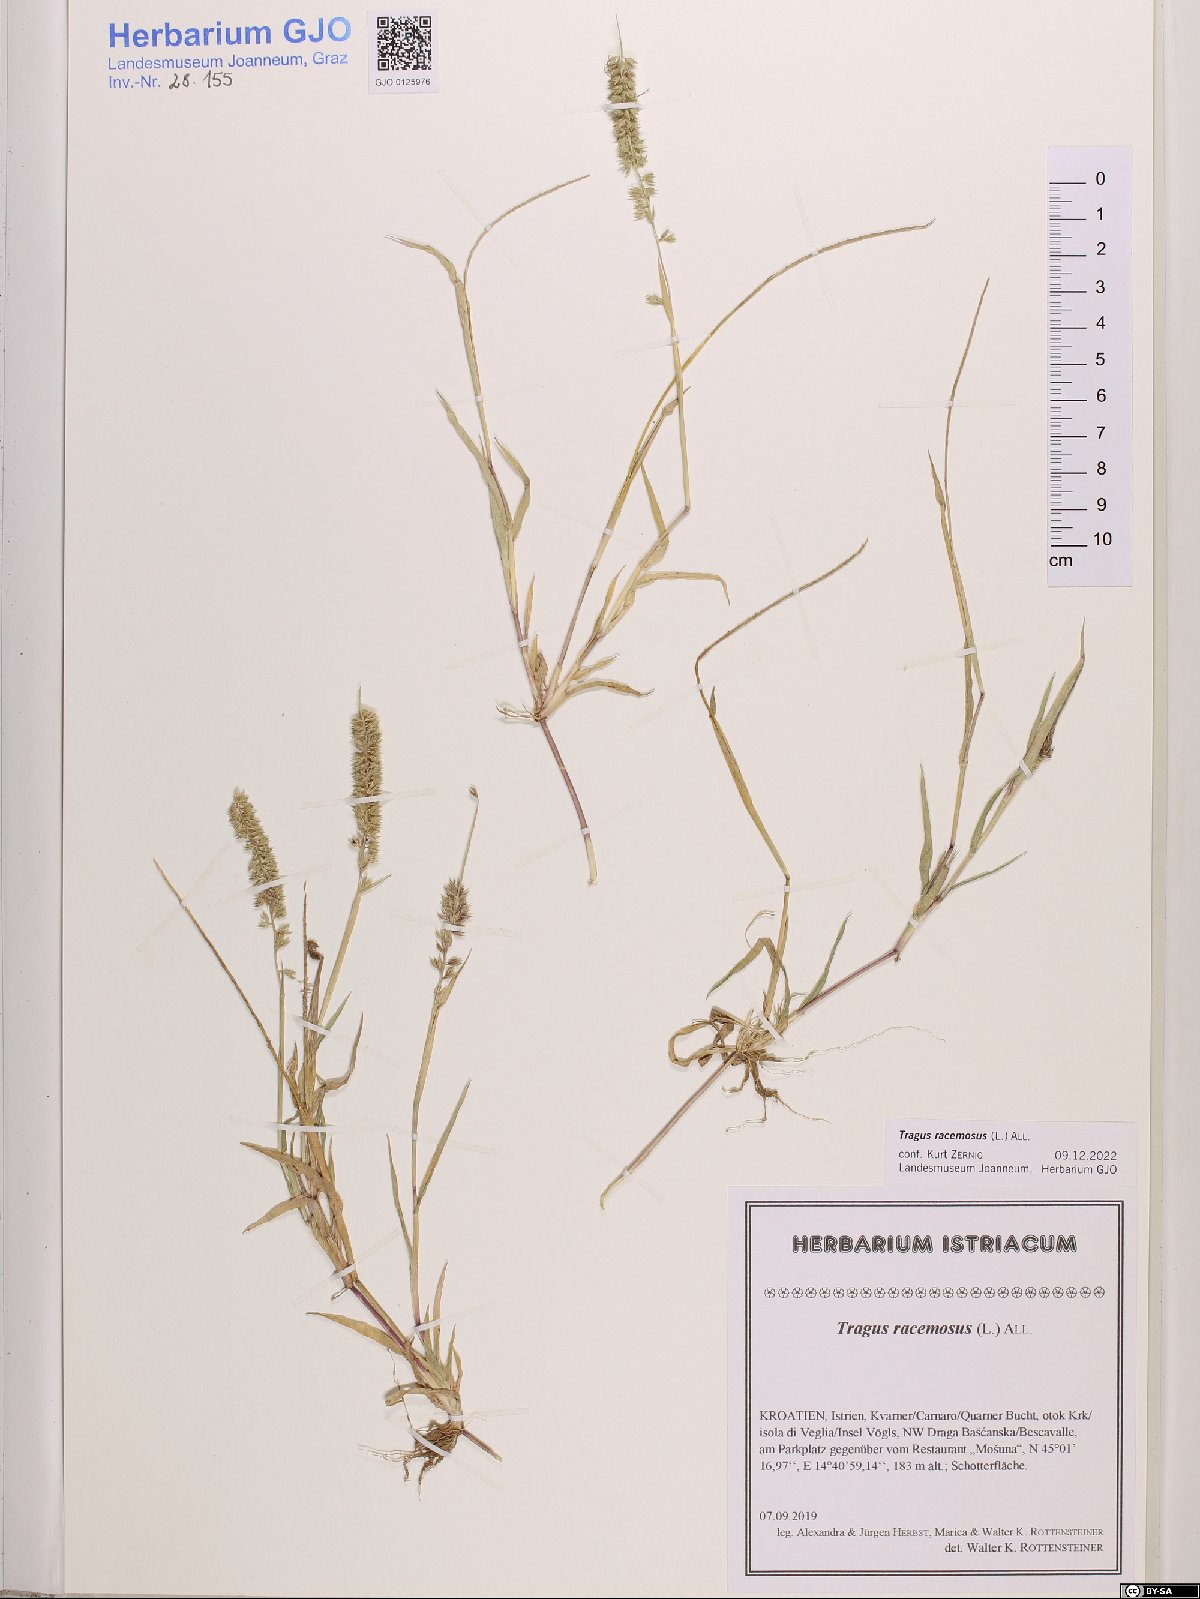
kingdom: Plantae
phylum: Tracheophyta
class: Liliopsida
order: Poales
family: Poaceae
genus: Tragus
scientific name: Tragus racemosus
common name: European bur-grass
